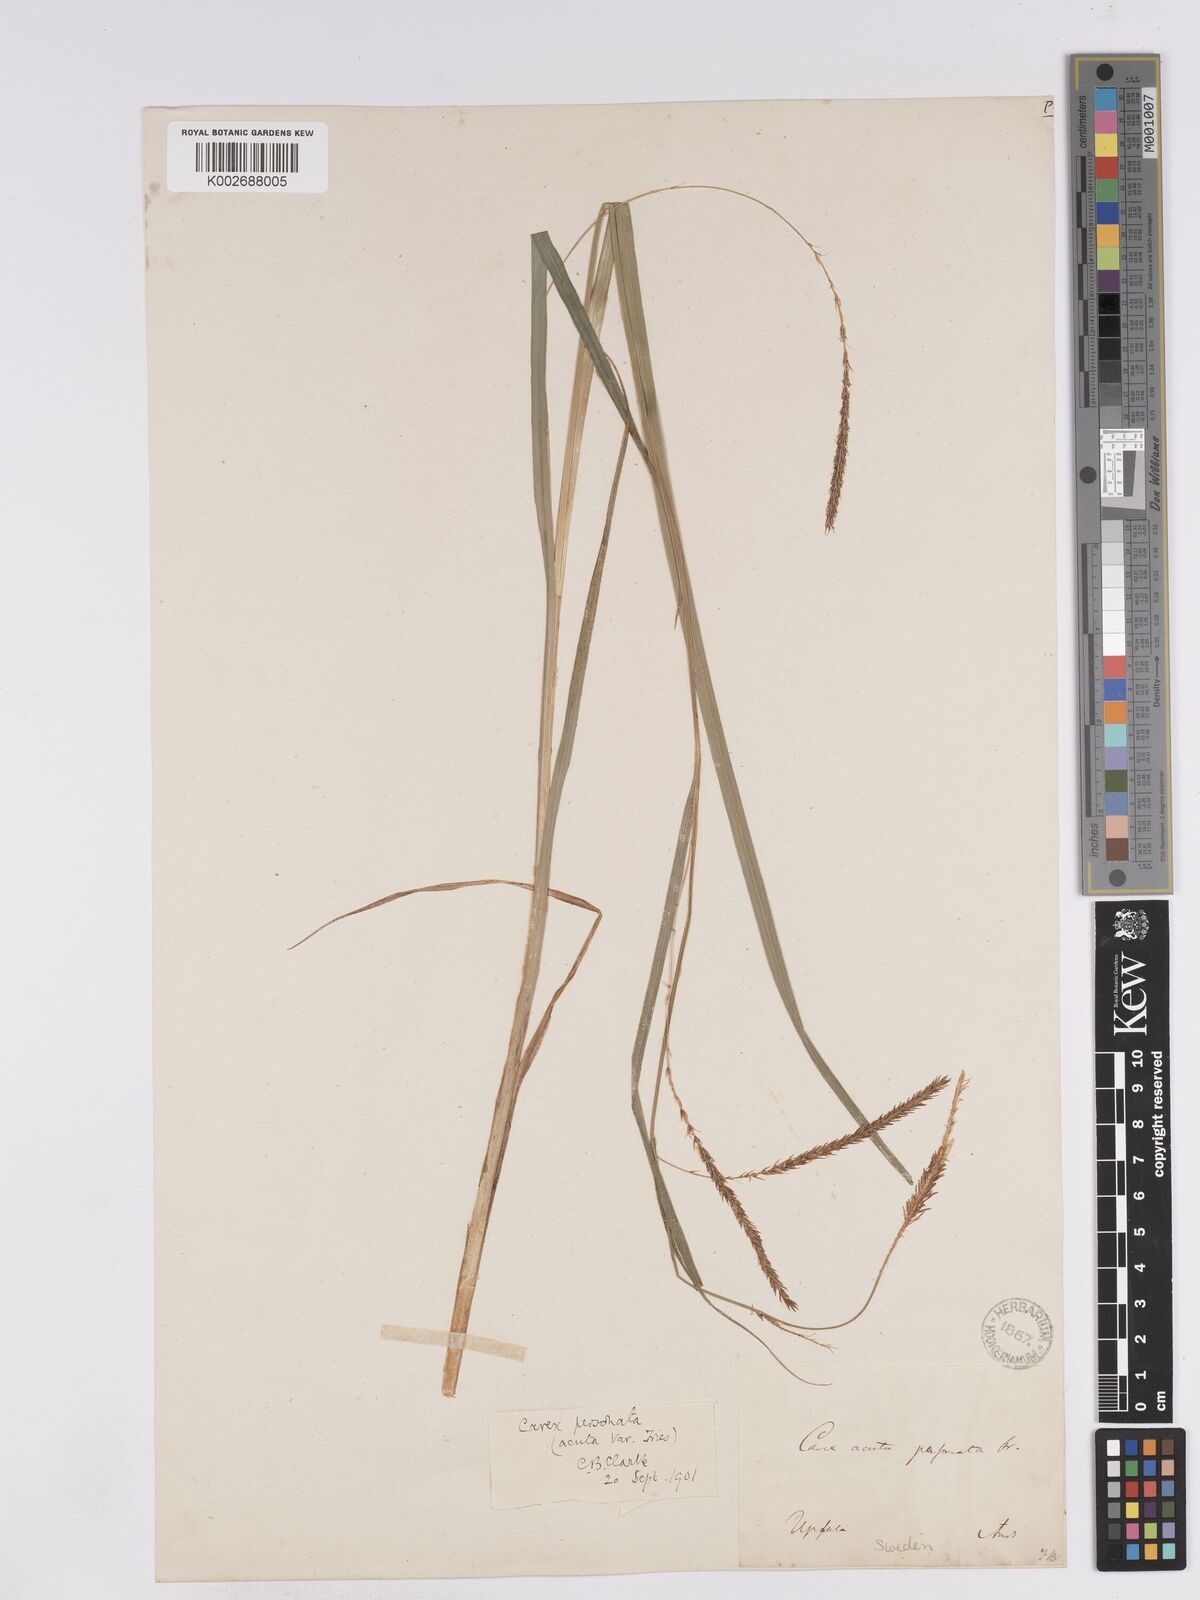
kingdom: Plantae
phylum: Tracheophyta
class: Liliopsida
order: Poales
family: Cyperaceae
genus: Carex
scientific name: Carex acuta
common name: Slender tufted-sedge
